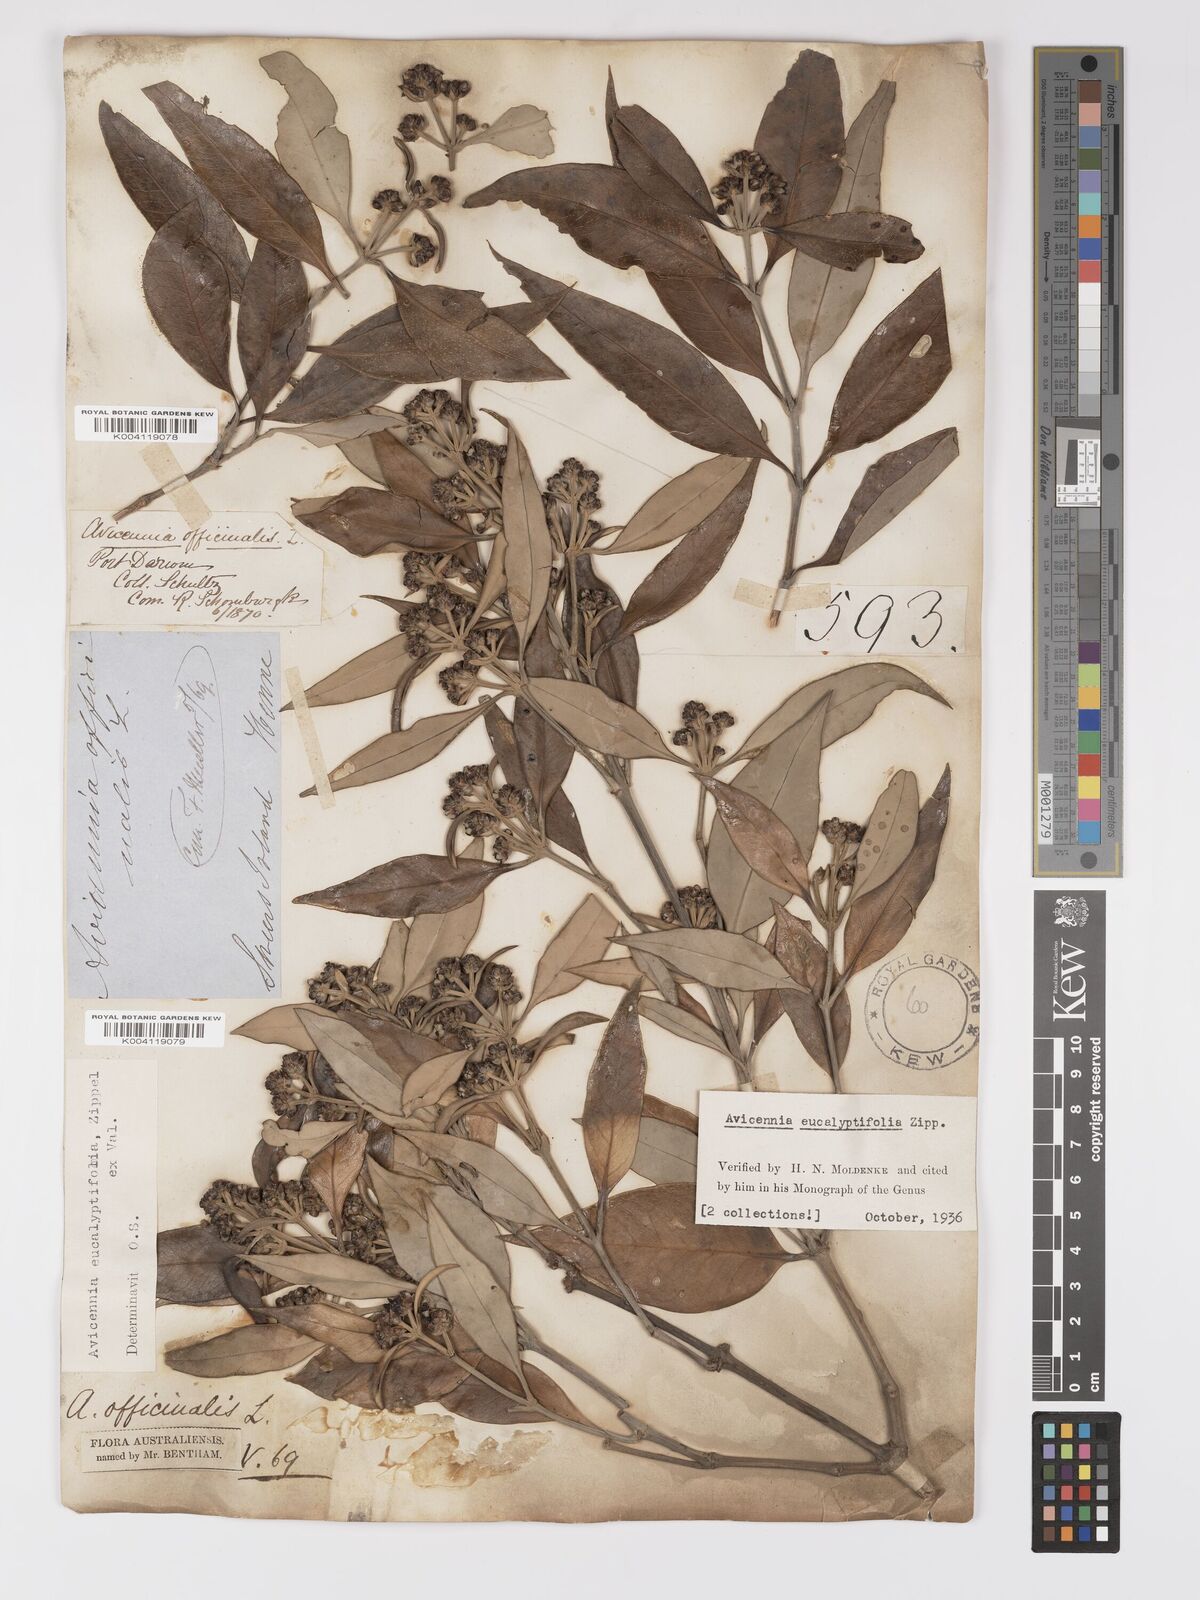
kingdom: Plantae
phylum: Tracheophyta
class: Magnoliopsida
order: Lamiales
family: Acanthaceae
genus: Avicennia
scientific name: Avicennia marina
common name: Gray mangrove
